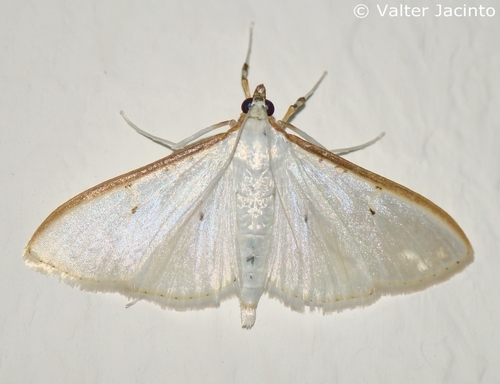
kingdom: Animalia
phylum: Arthropoda
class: Insecta
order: Lepidoptera
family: Crambidae
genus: Palpita
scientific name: Palpita vitrealis
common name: Olive-tree pearl
